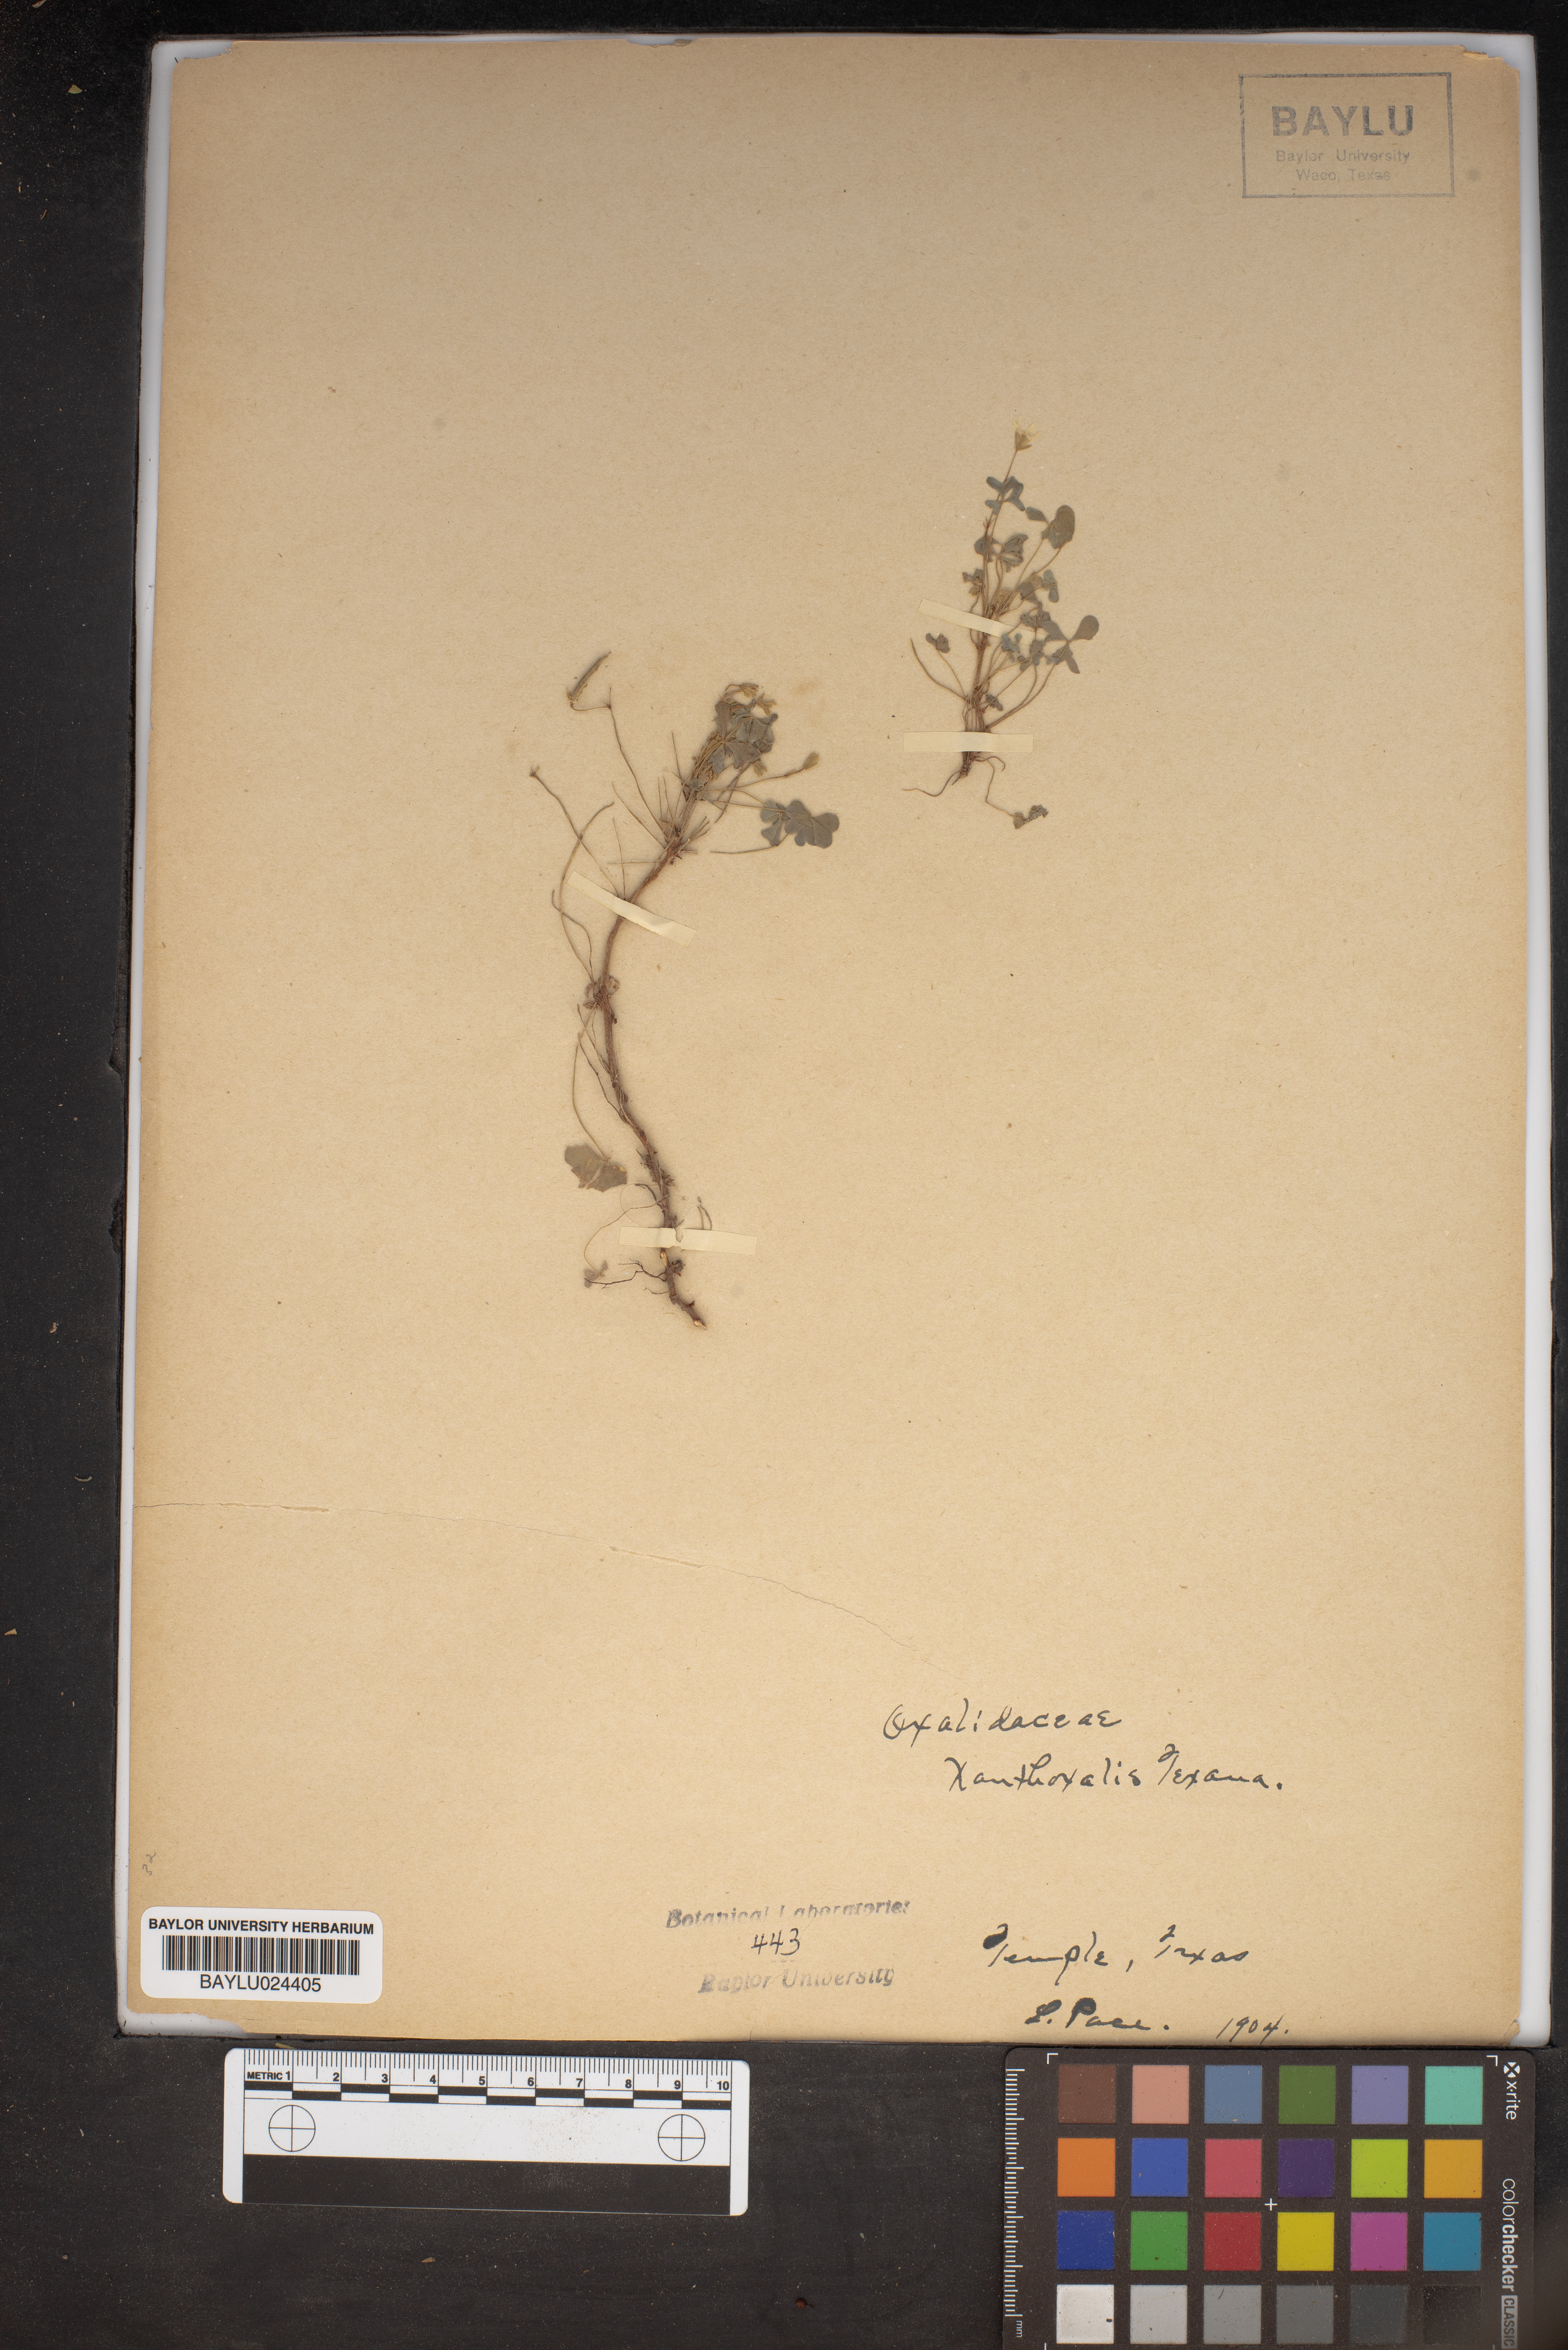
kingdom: Plantae
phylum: Tracheophyta
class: Magnoliopsida
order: Oxalidales
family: Oxalidaceae
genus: Oxalis
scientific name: Oxalis texana
